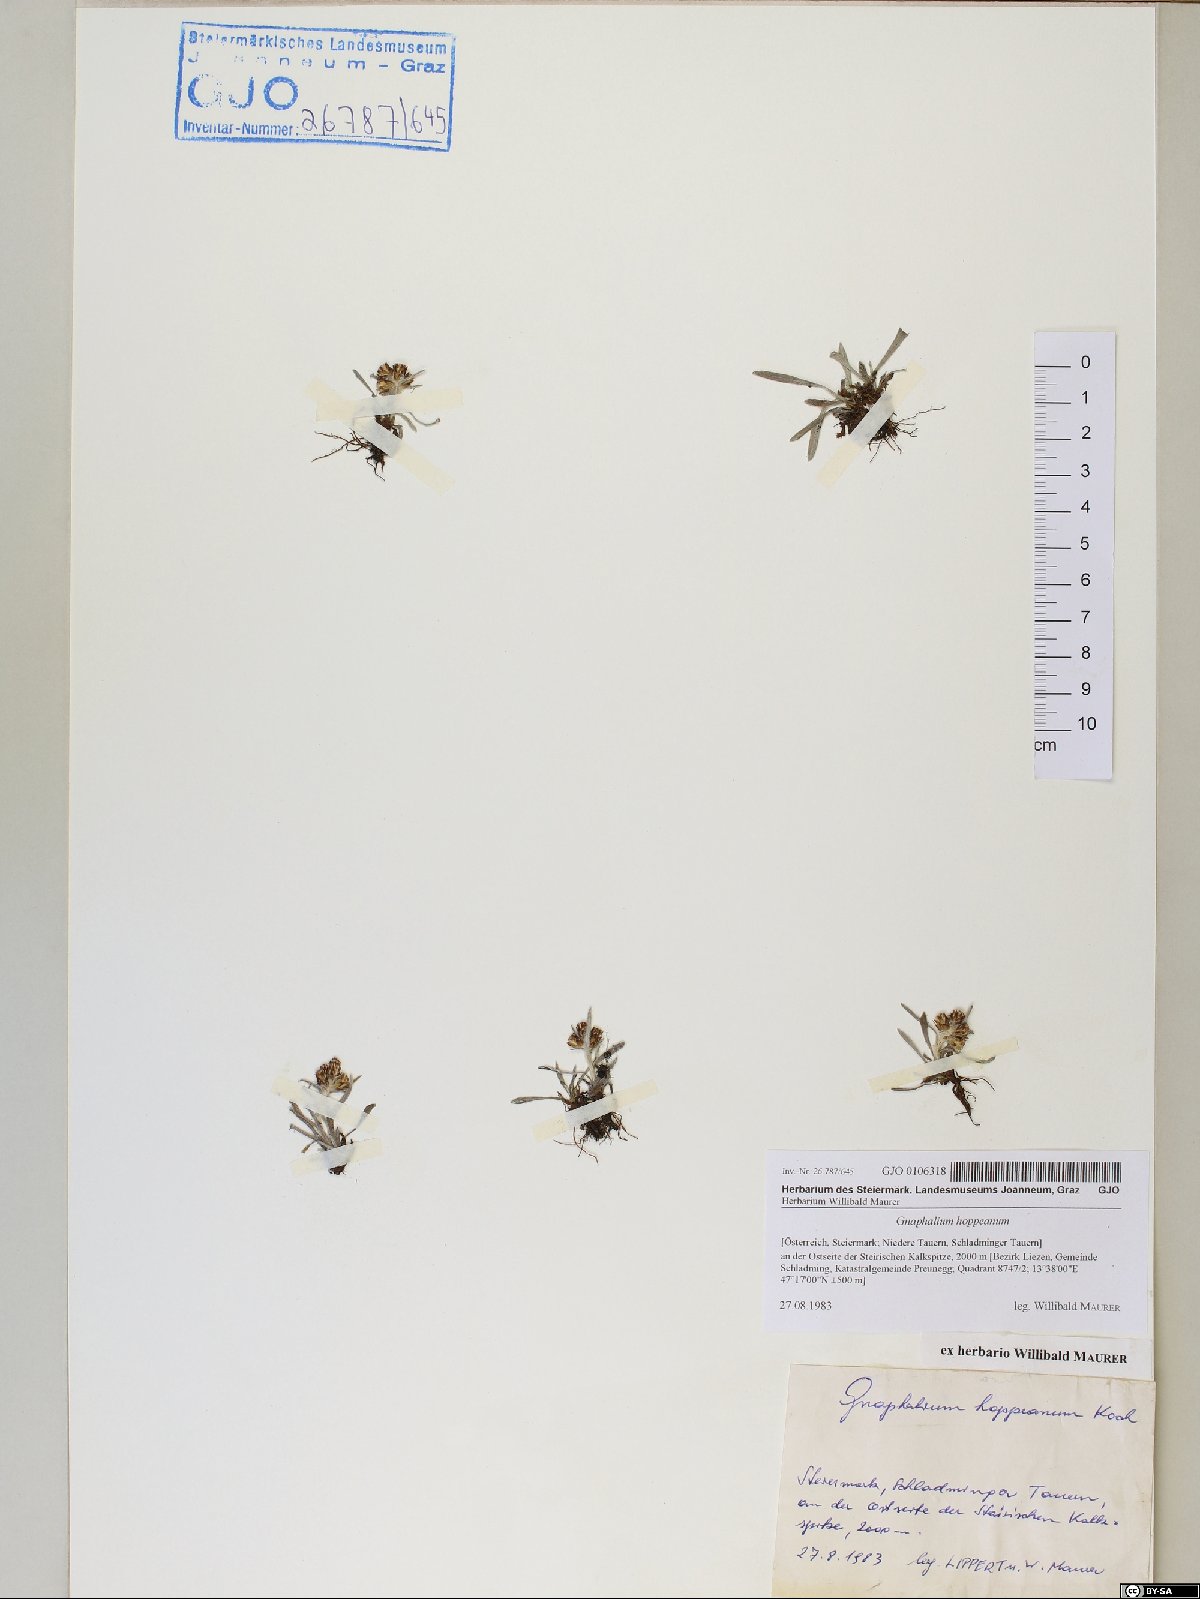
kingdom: Plantae
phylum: Tracheophyta
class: Magnoliopsida
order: Asterales
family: Asteraceae
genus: Omalotheca
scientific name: Omalotheca hoppeana
